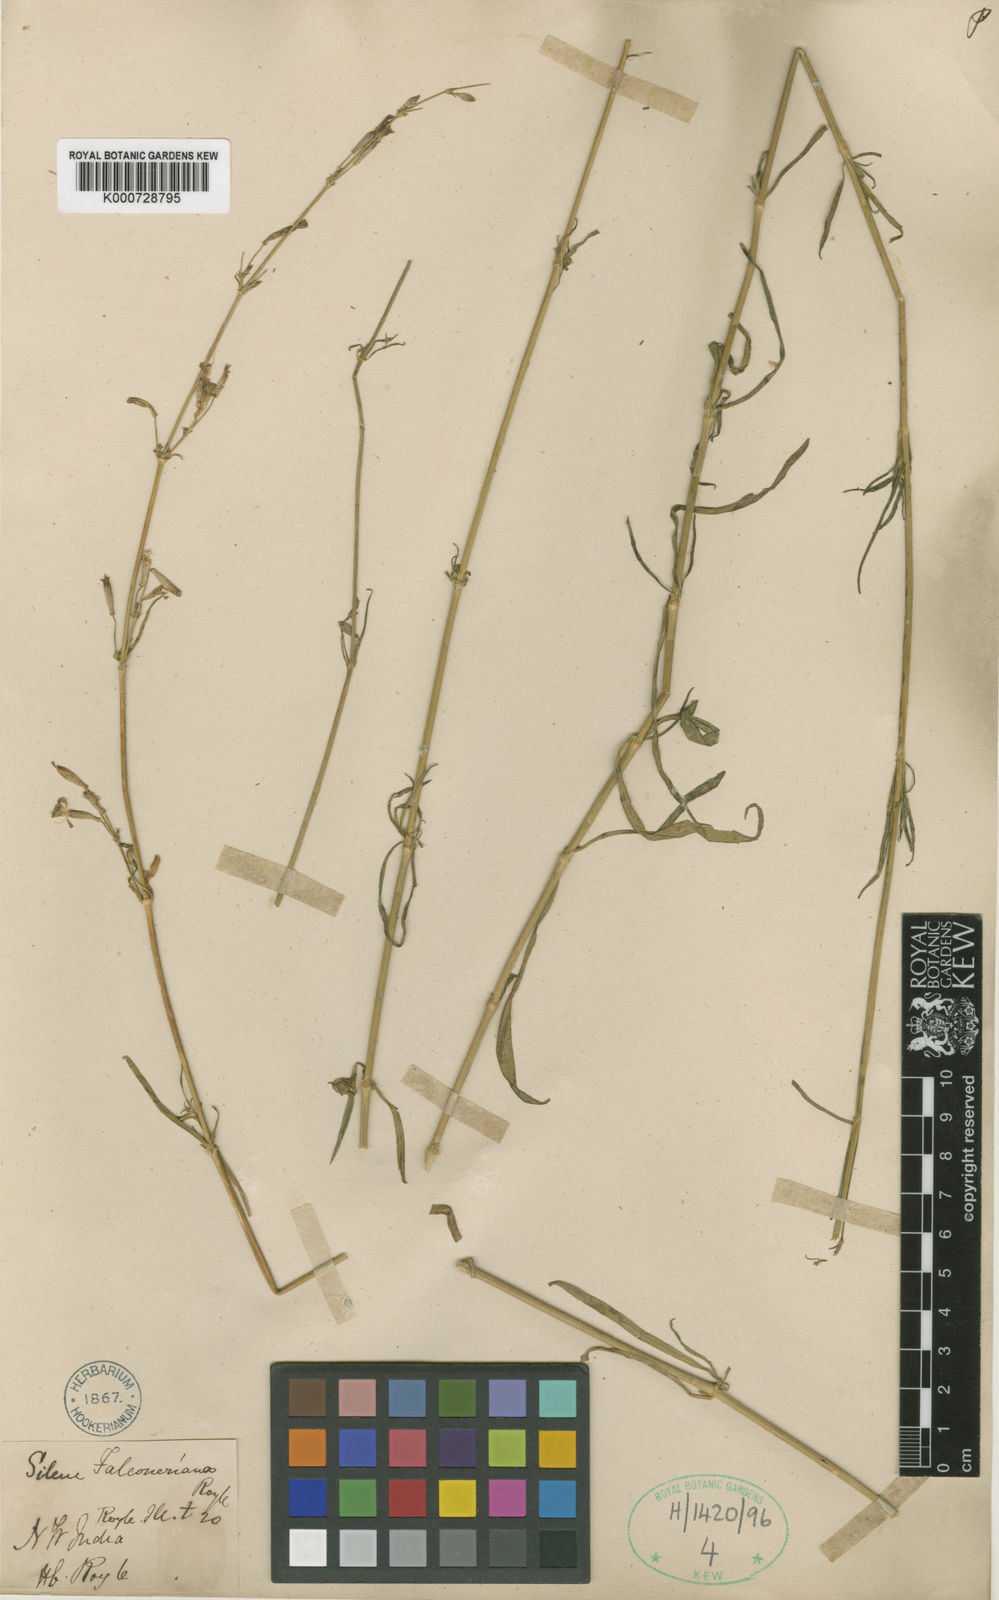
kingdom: Plantae
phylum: Tracheophyta
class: Magnoliopsida
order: Caryophyllales
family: Caryophyllaceae
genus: Silene
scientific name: Silene falconeriana
